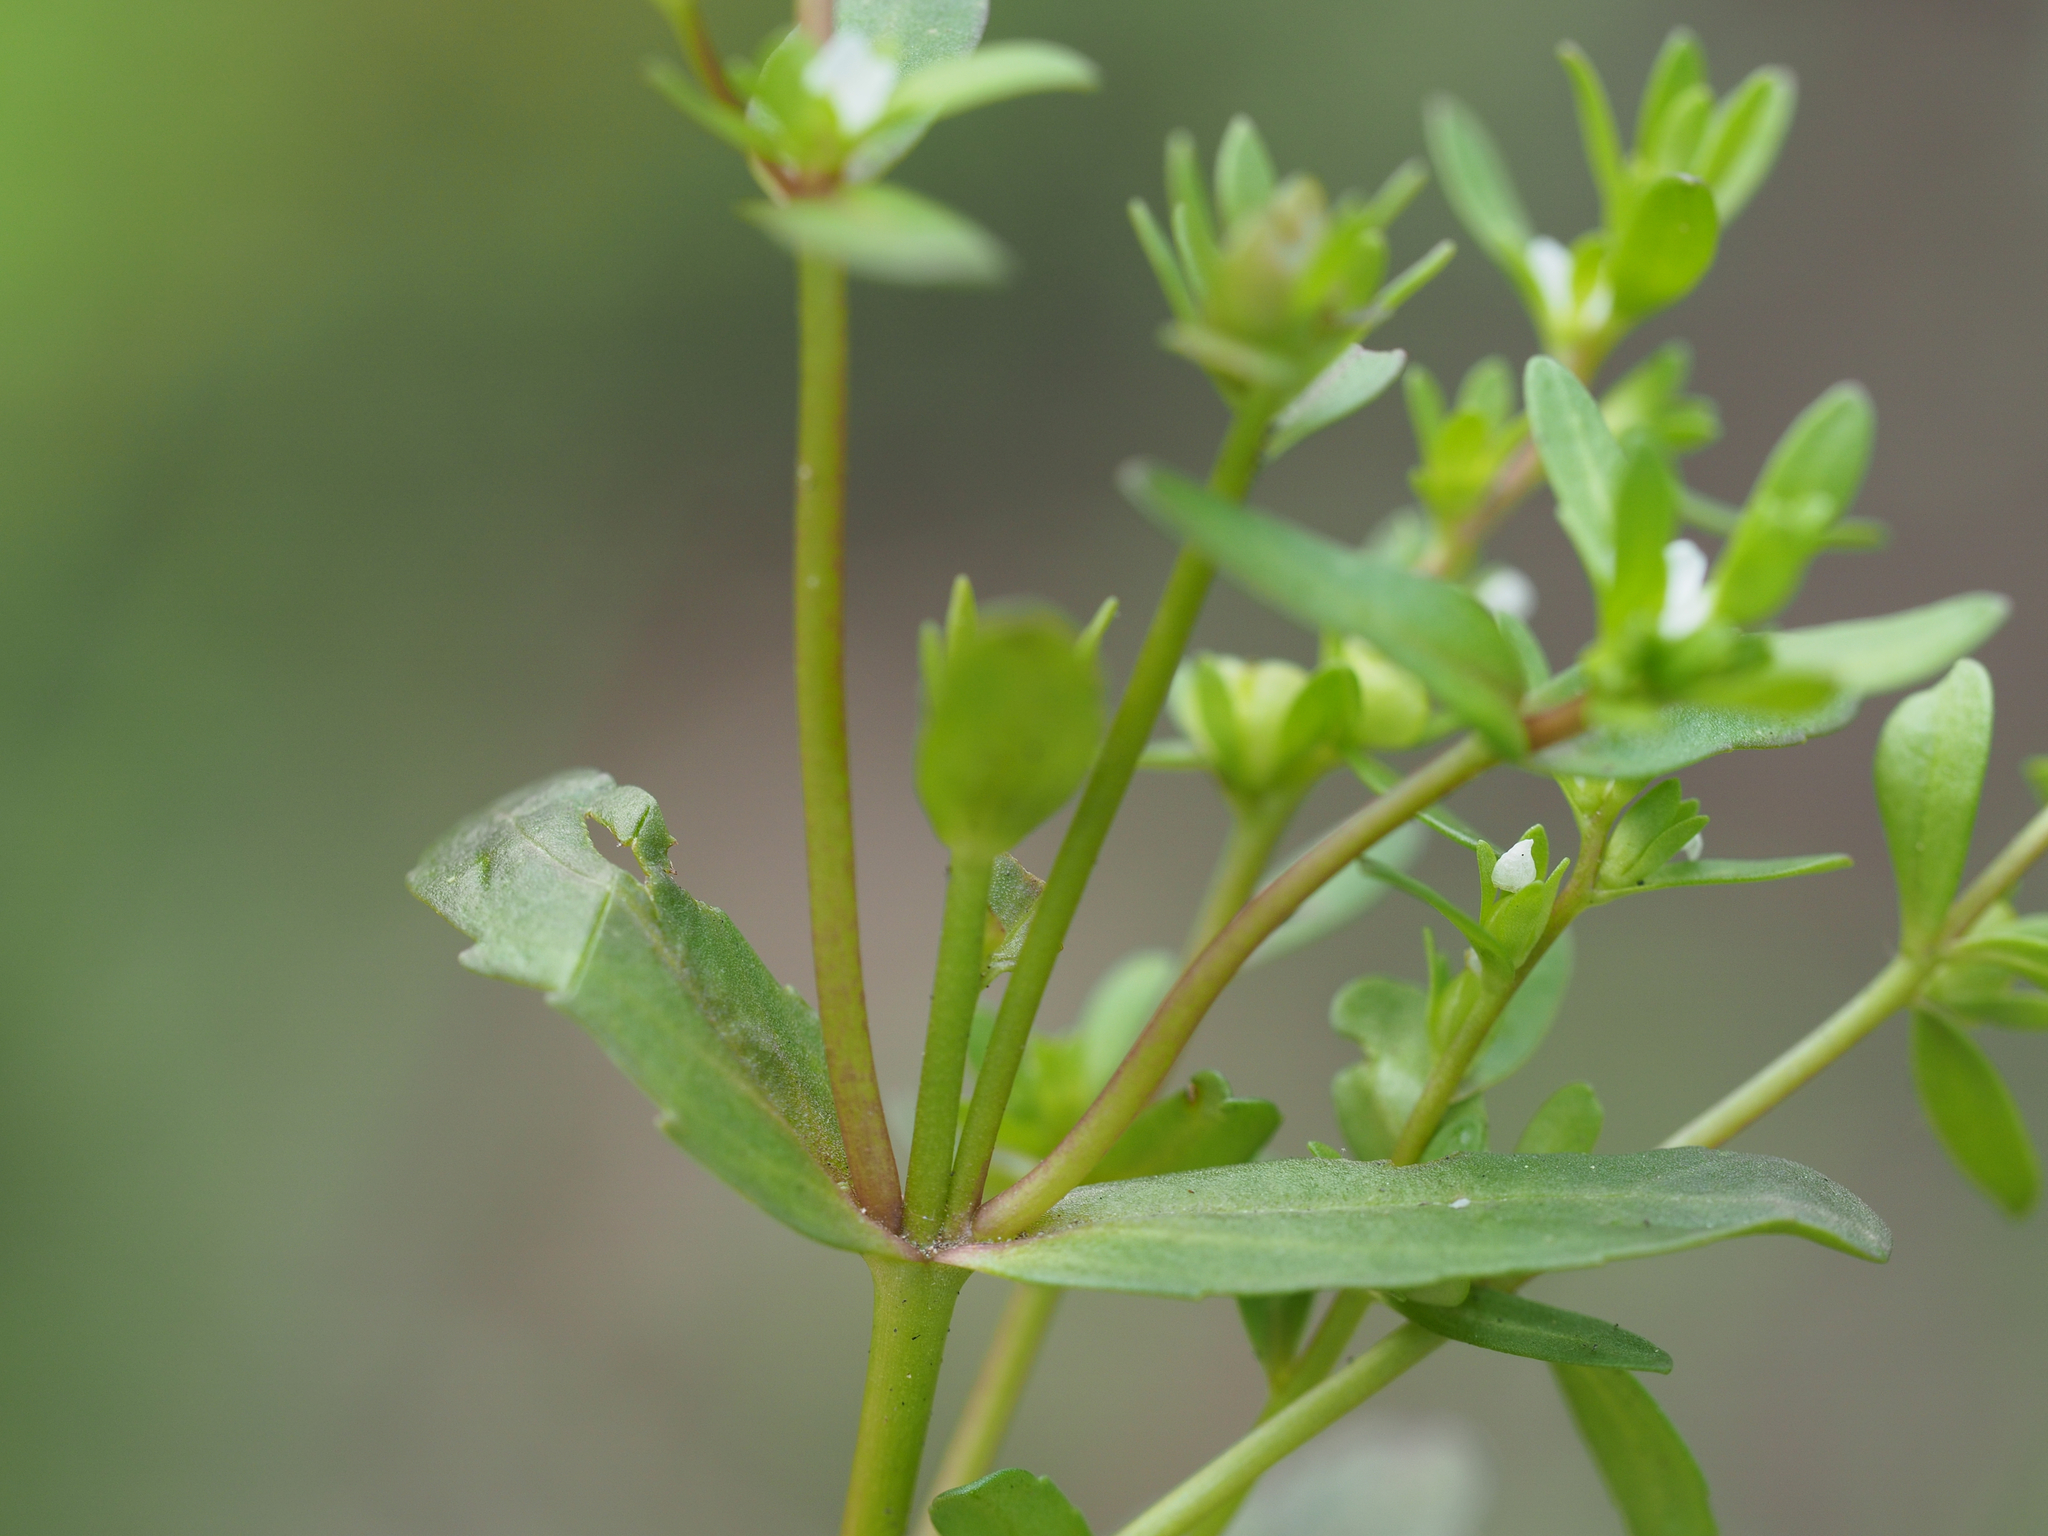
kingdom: Plantae
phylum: Tracheophyta
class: Magnoliopsida
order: Lamiales
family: Plantaginaceae
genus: Veronica
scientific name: Veronica peregrina
